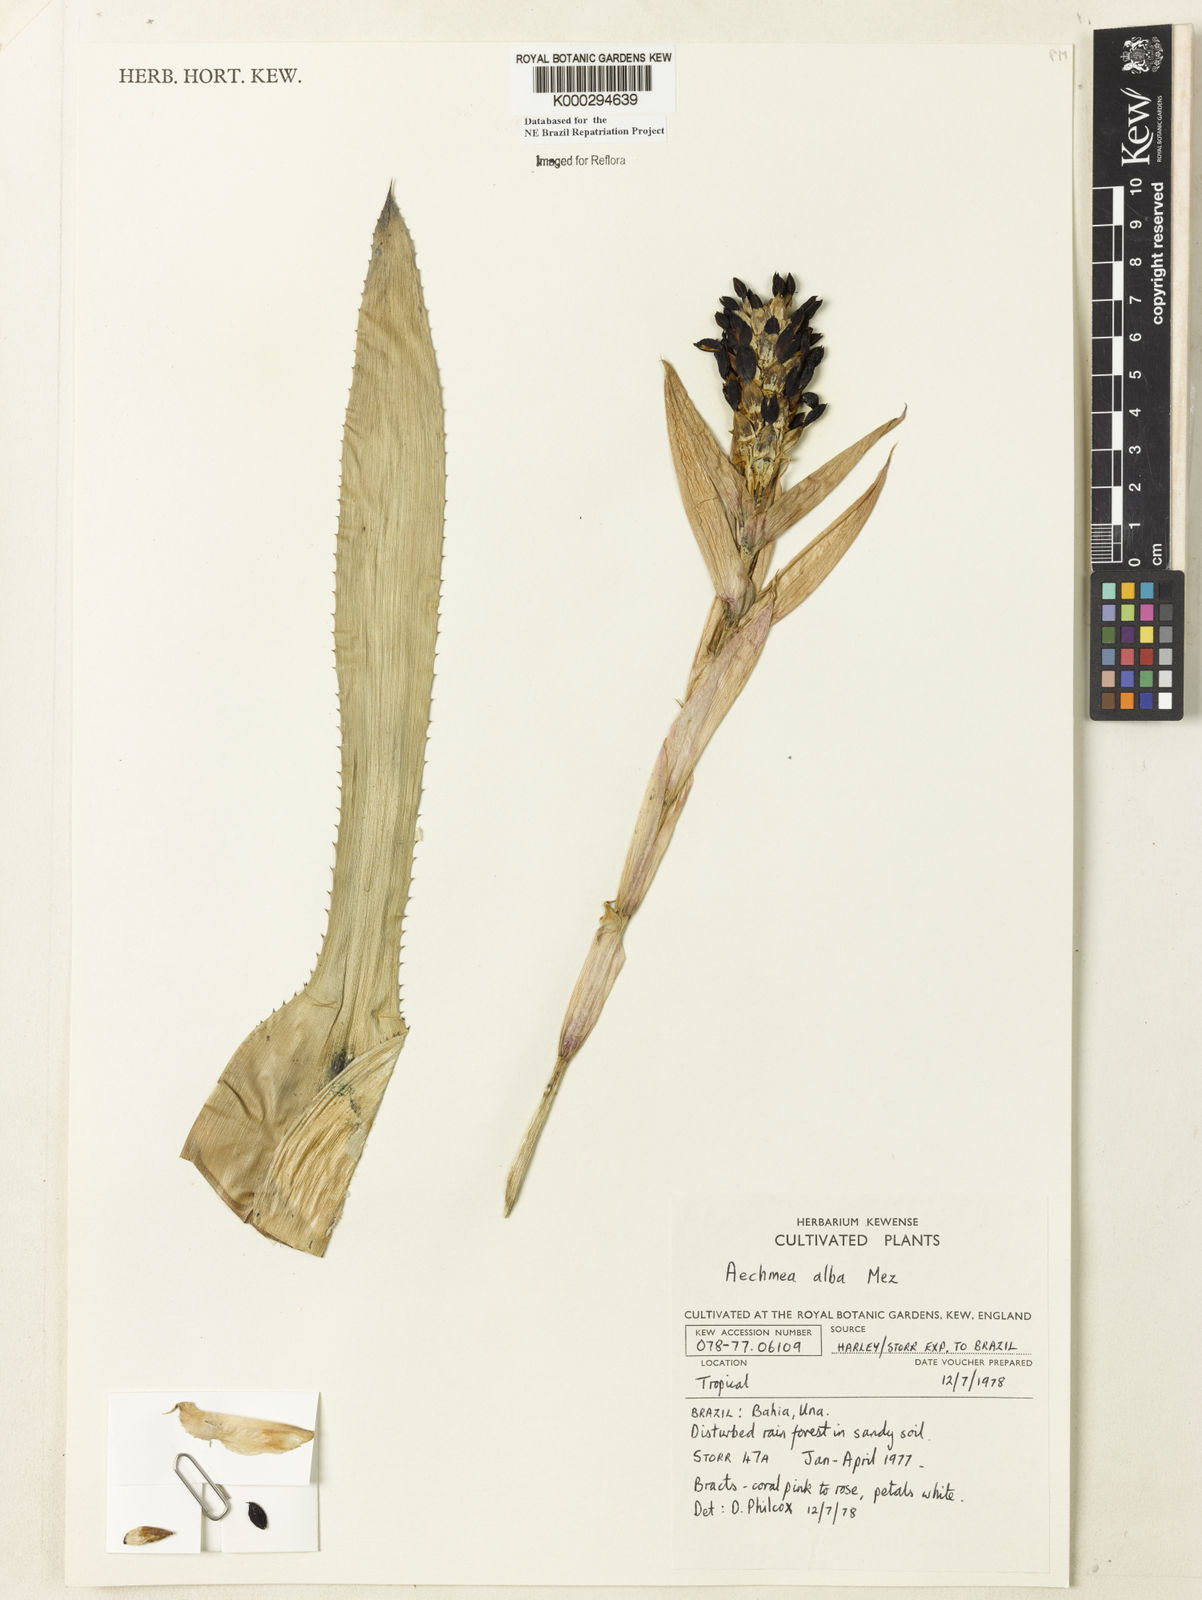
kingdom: Plantae
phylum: Tracheophyta
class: Liliopsida
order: Poales
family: Bromeliaceae
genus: Aechmea
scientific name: Aechmea alba
